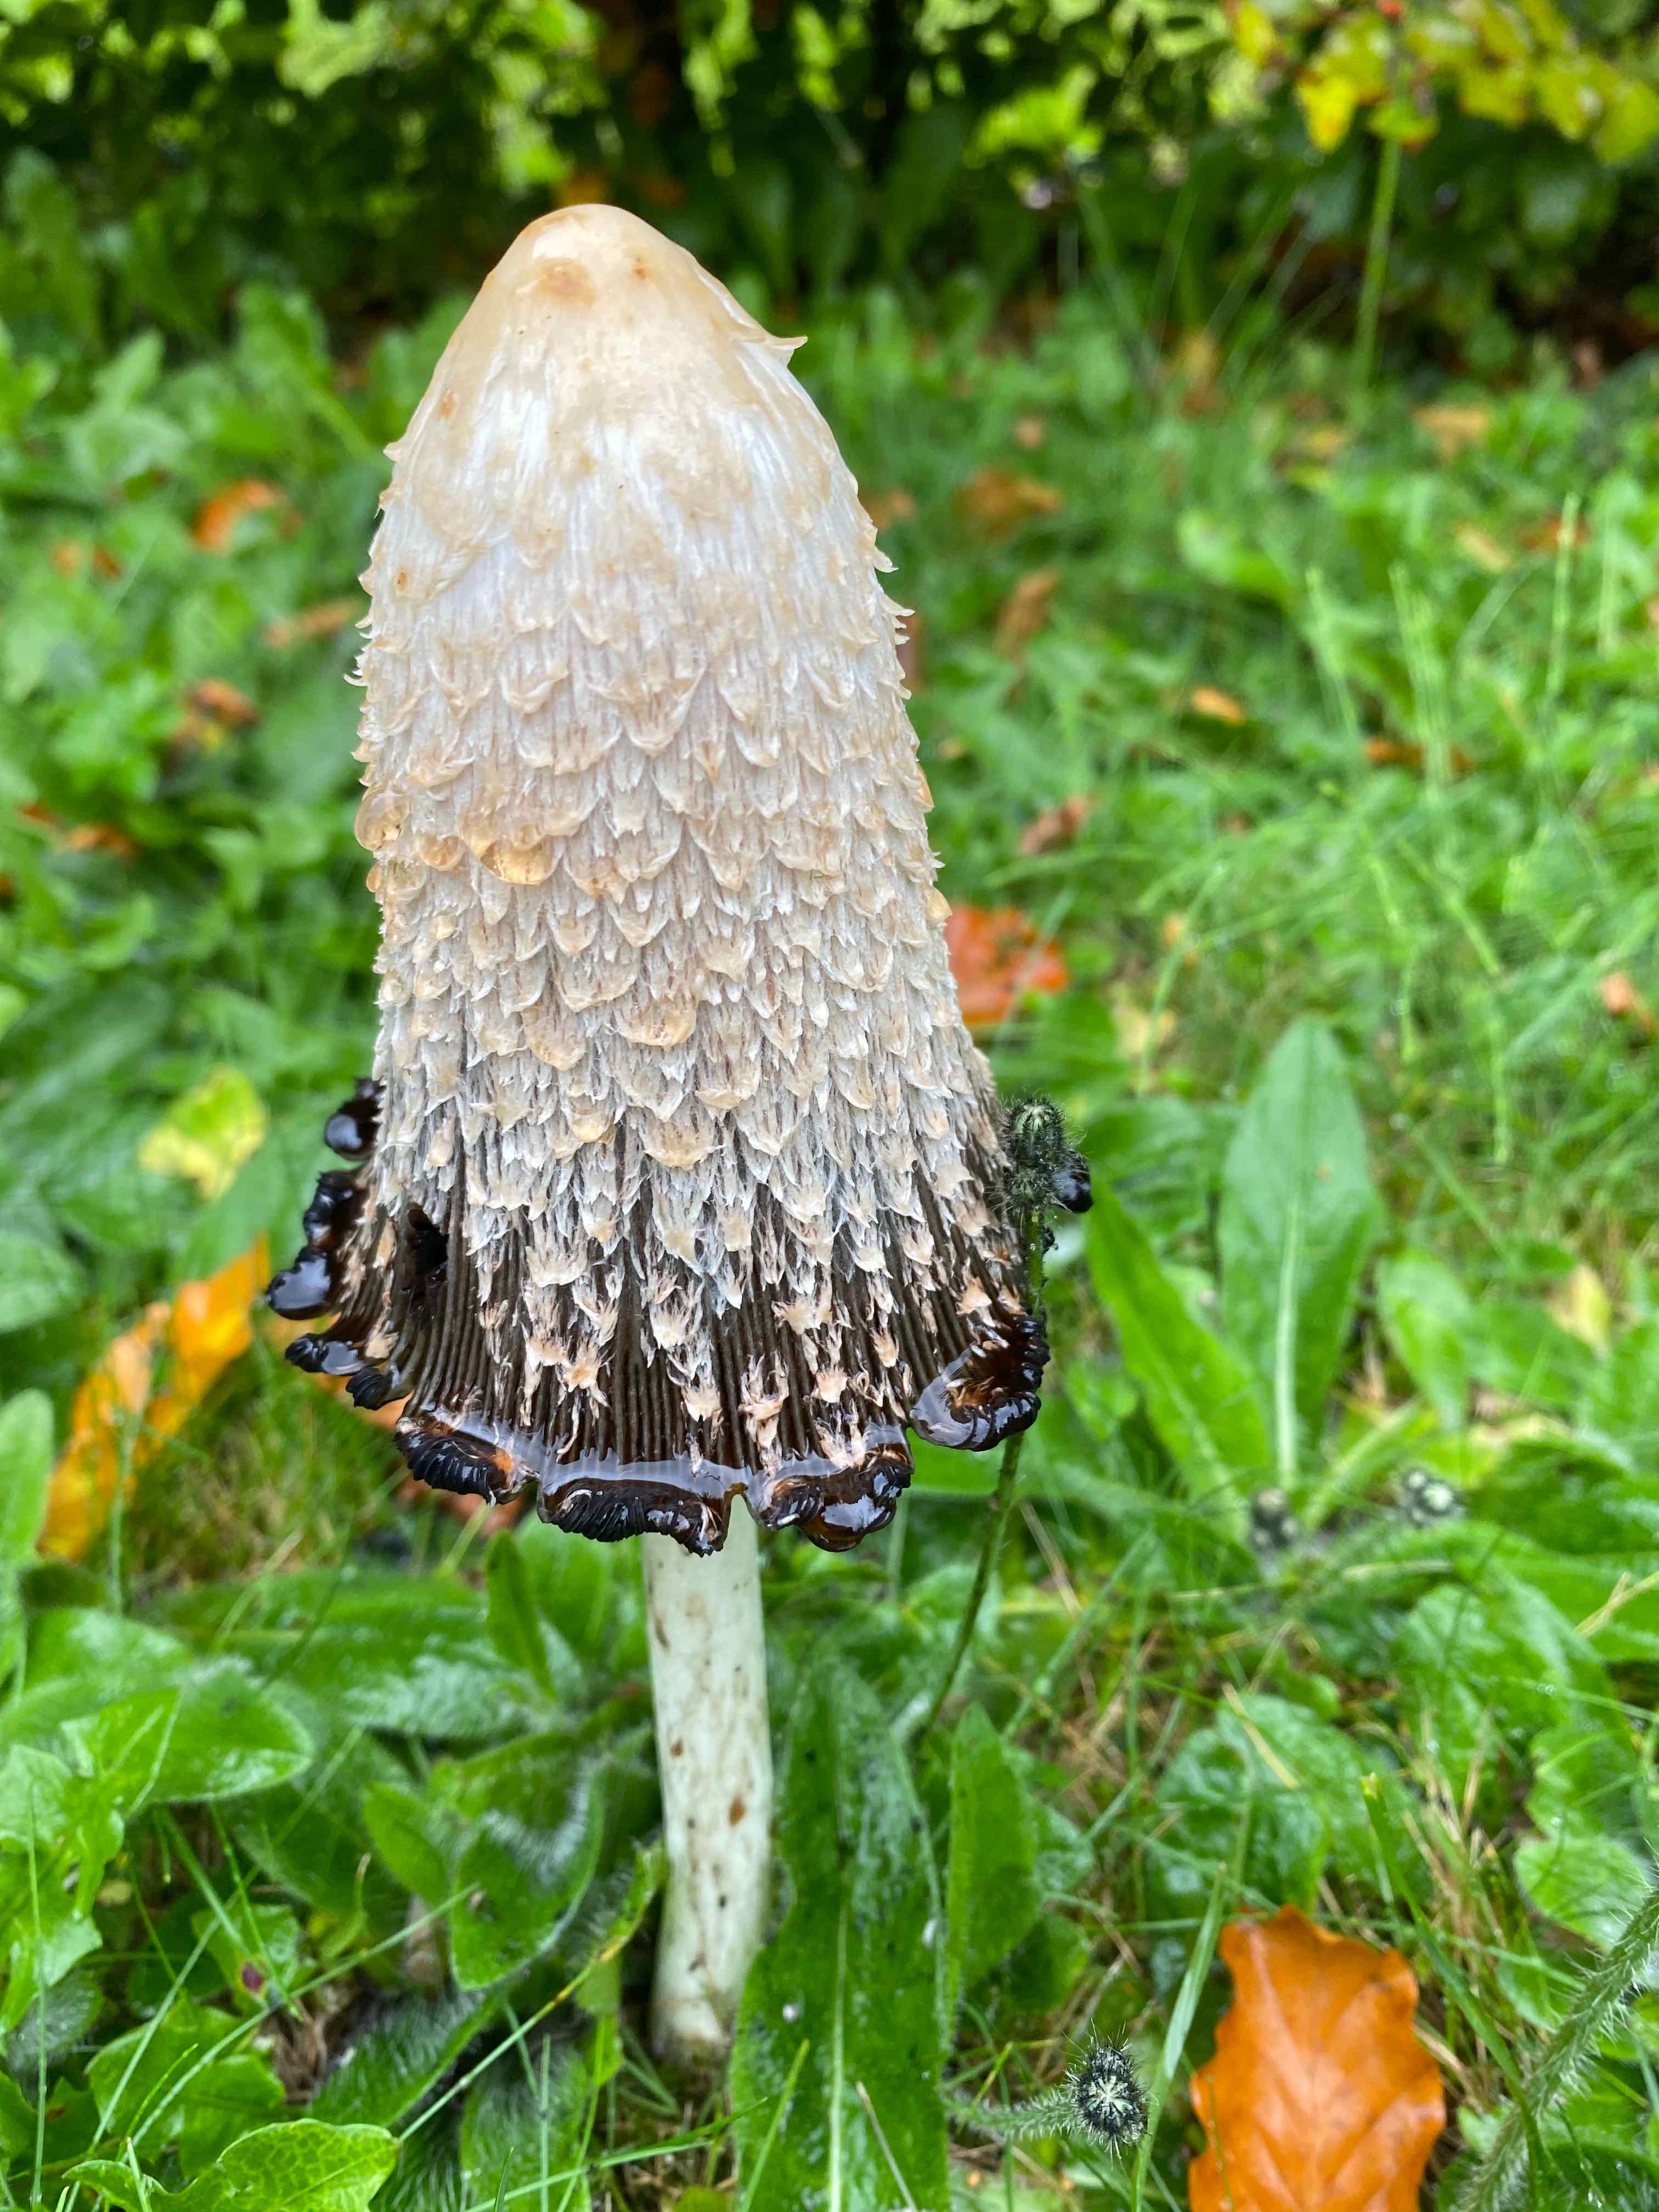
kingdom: Fungi
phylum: Basidiomycota
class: Agaricomycetes
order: Agaricales
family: Agaricaceae
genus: Coprinus
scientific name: Coprinus comatus
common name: stor parykhat
